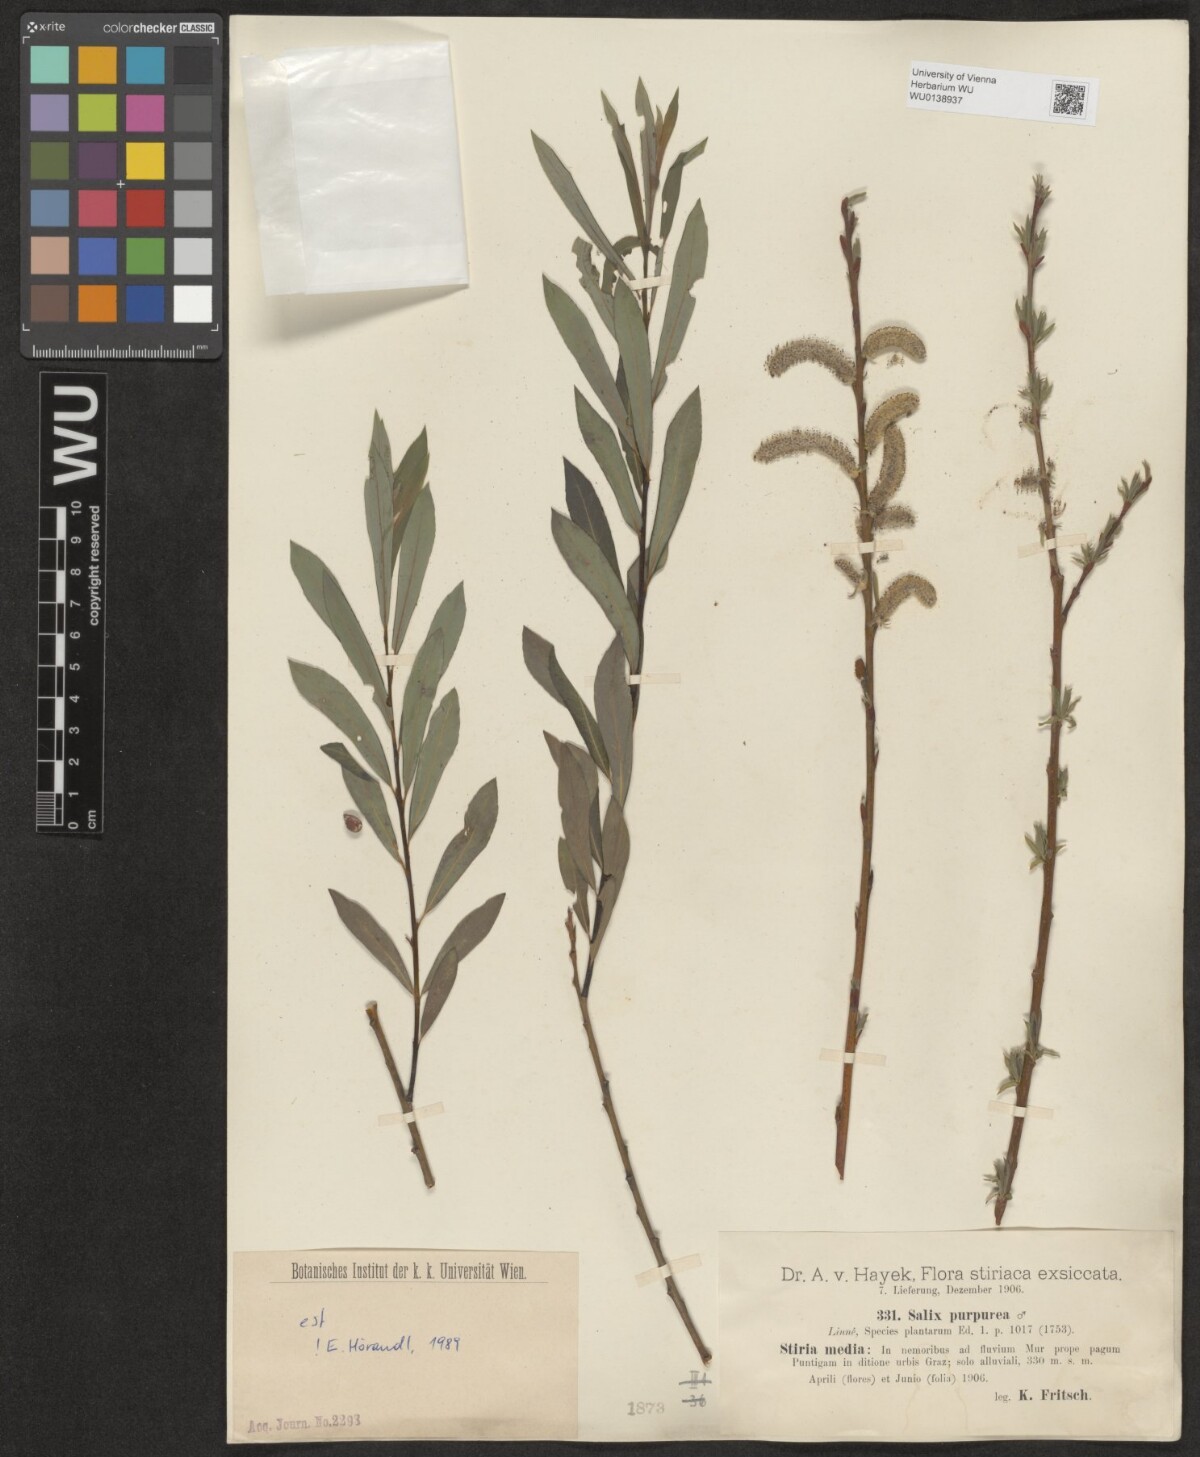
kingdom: Plantae
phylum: Tracheophyta
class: Magnoliopsida
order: Malpighiales
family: Salicaceae
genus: Salix
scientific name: Salix purpurea
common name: Purple willow
